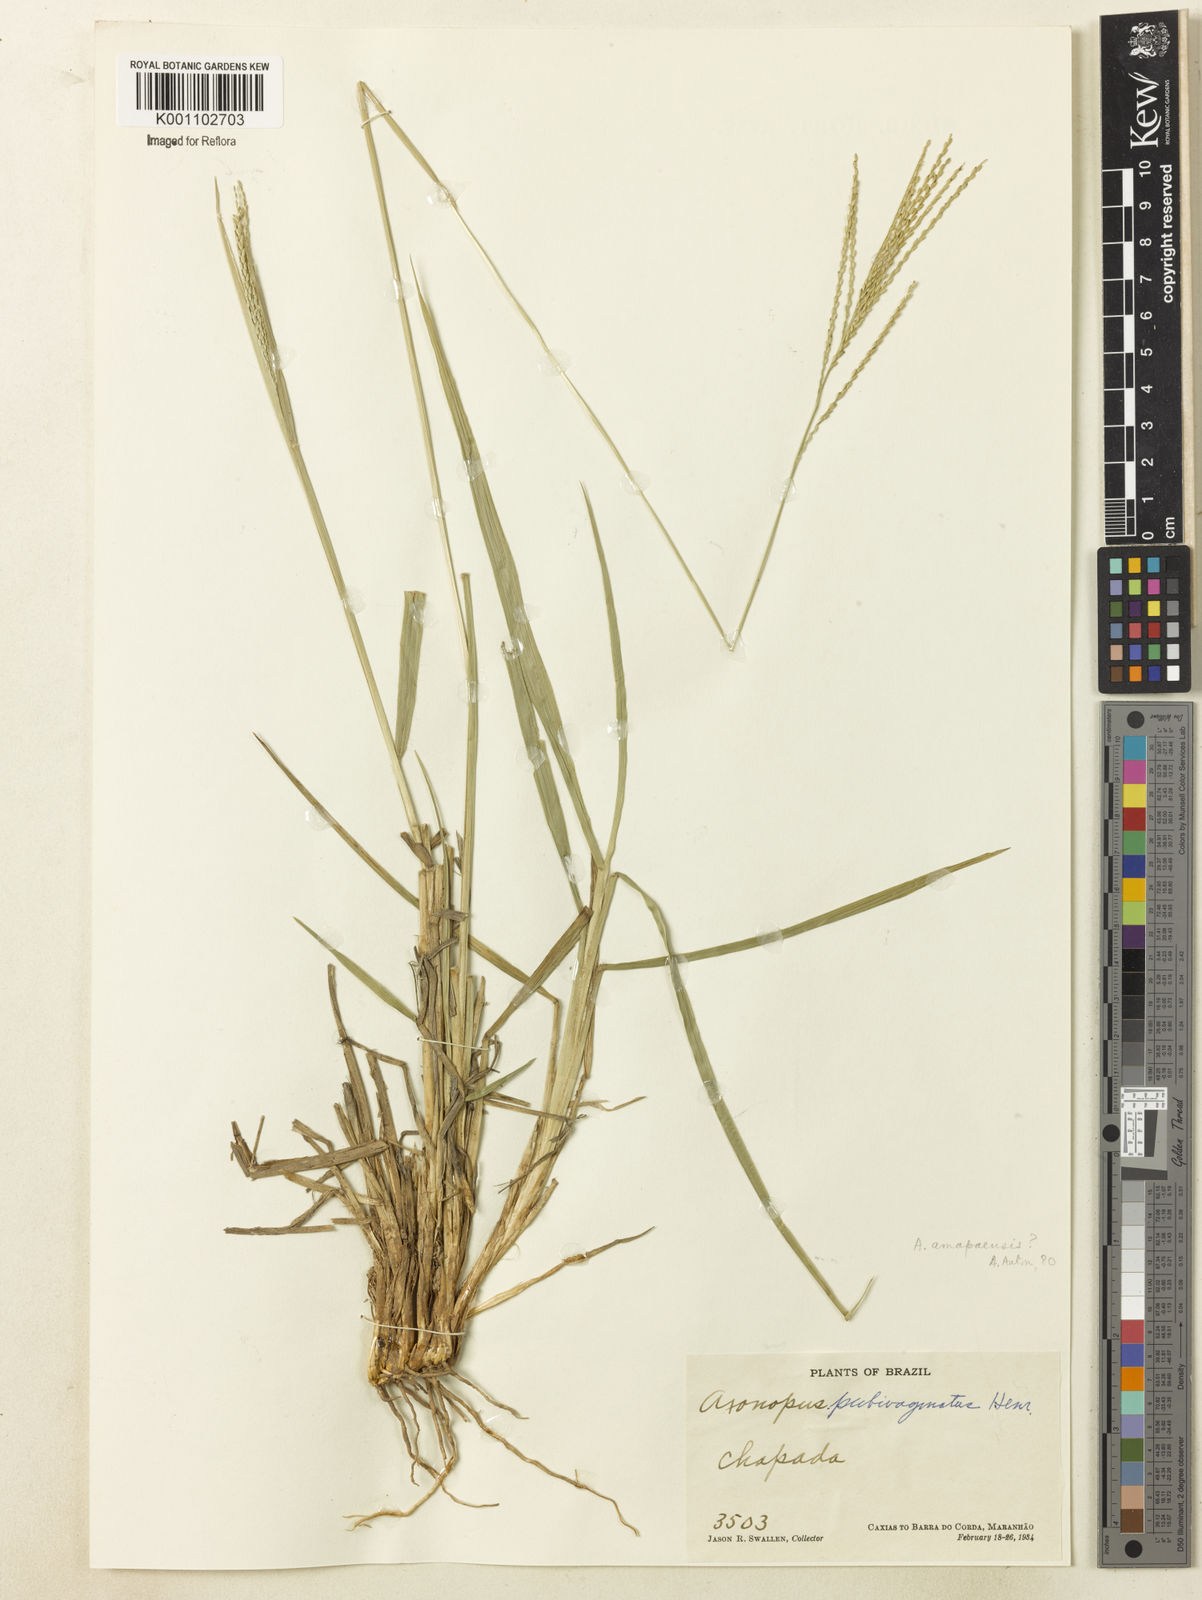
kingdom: Plantae
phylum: Tracheophyta
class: Liliopsida
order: Poales
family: Poaceae
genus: Axonopus
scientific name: Axonopus amapaensis
